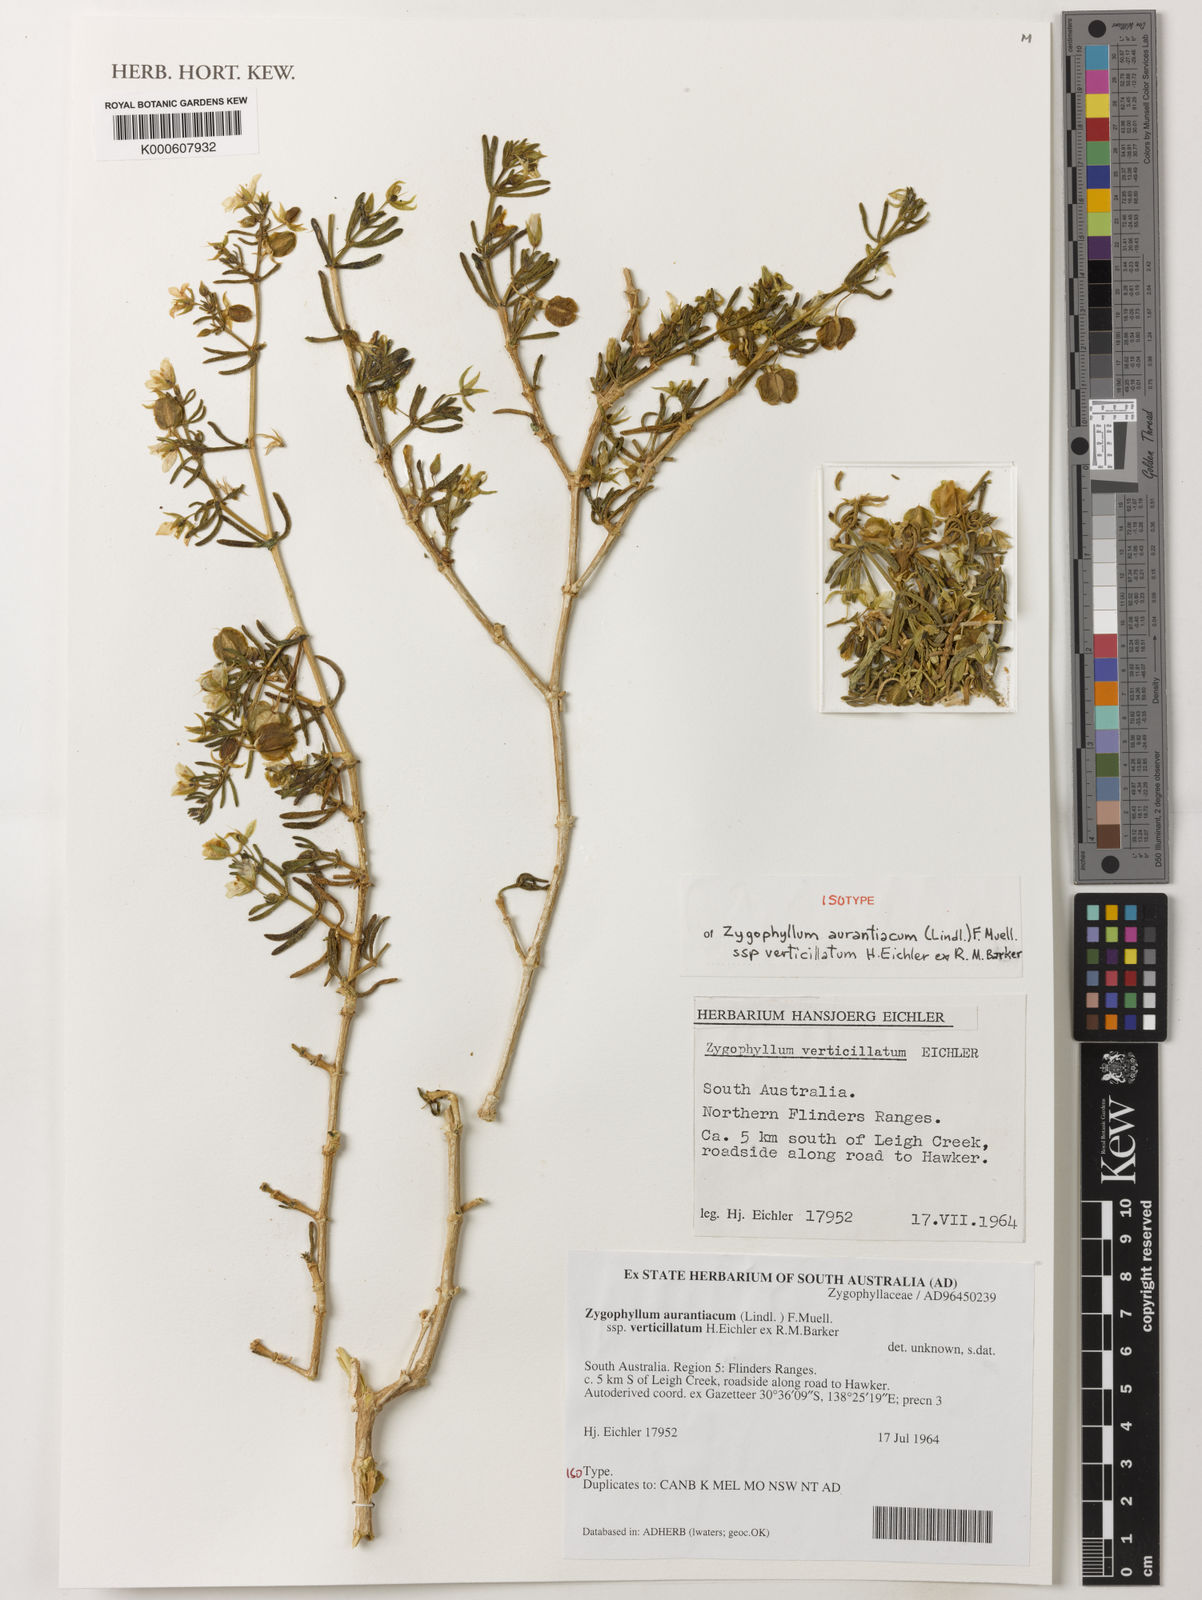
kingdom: Plantae
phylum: Tracheophyta
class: Magnoliopsida
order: Zygophyllales
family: Zygophyllaceae
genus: Zygophyllum
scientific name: Zygophyllum
